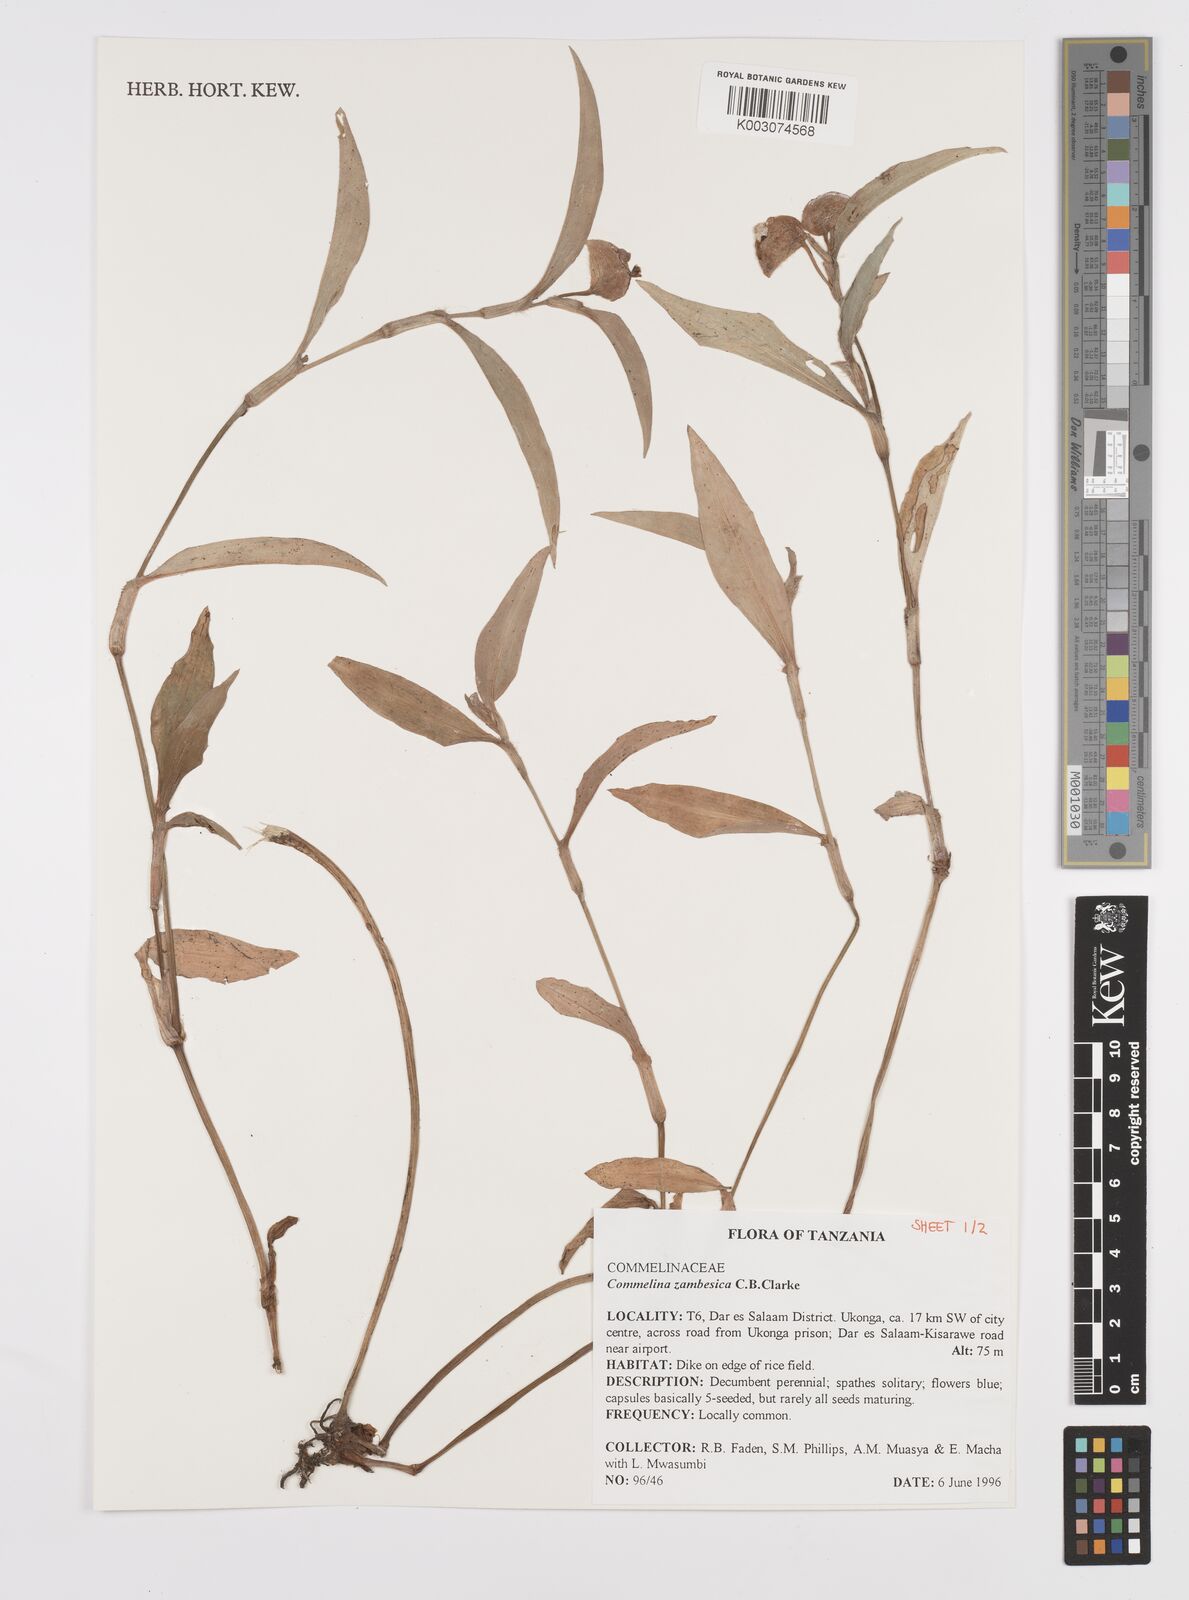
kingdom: Plantae
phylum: Tracheophyta
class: Liliopsida
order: Commelinales
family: Commelinaceae
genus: Commelina
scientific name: Commelina zambesica
